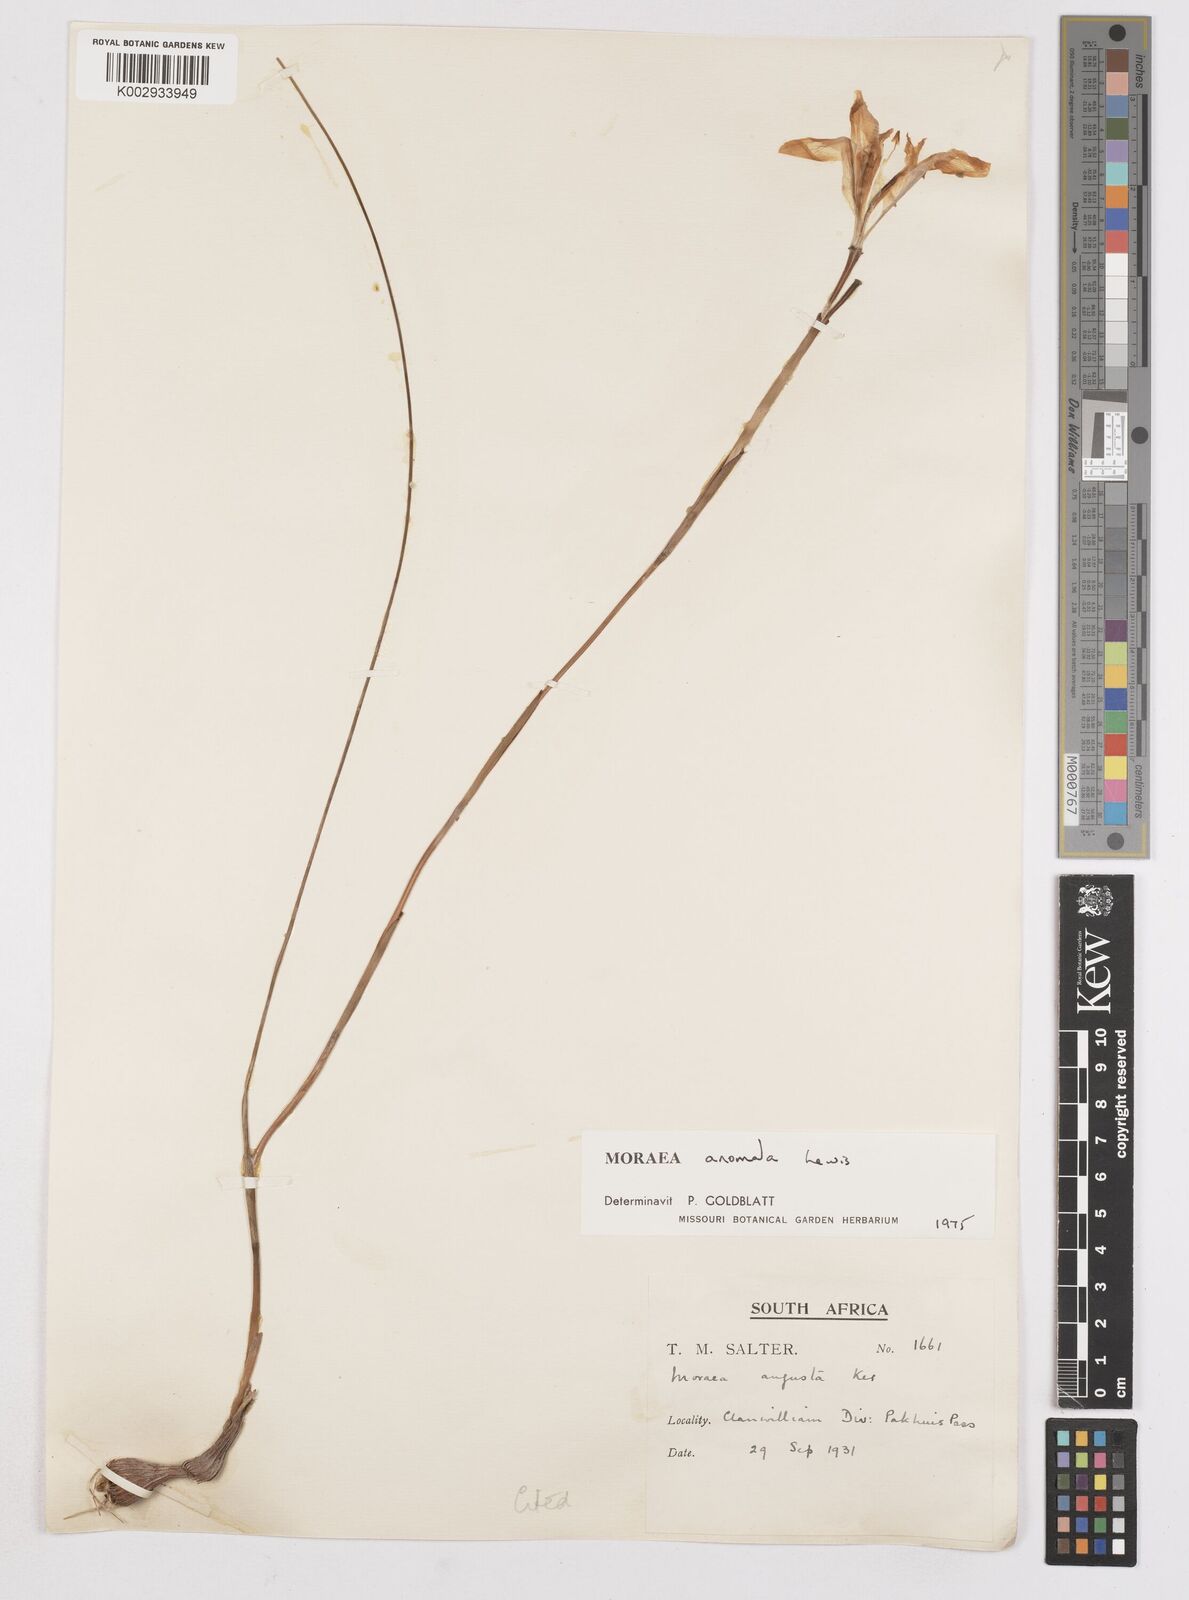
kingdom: Plantae
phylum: Tracheophyta
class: Liliopsida
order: Asparagales
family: Iridaceae
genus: Moraea
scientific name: Moraea anomala
